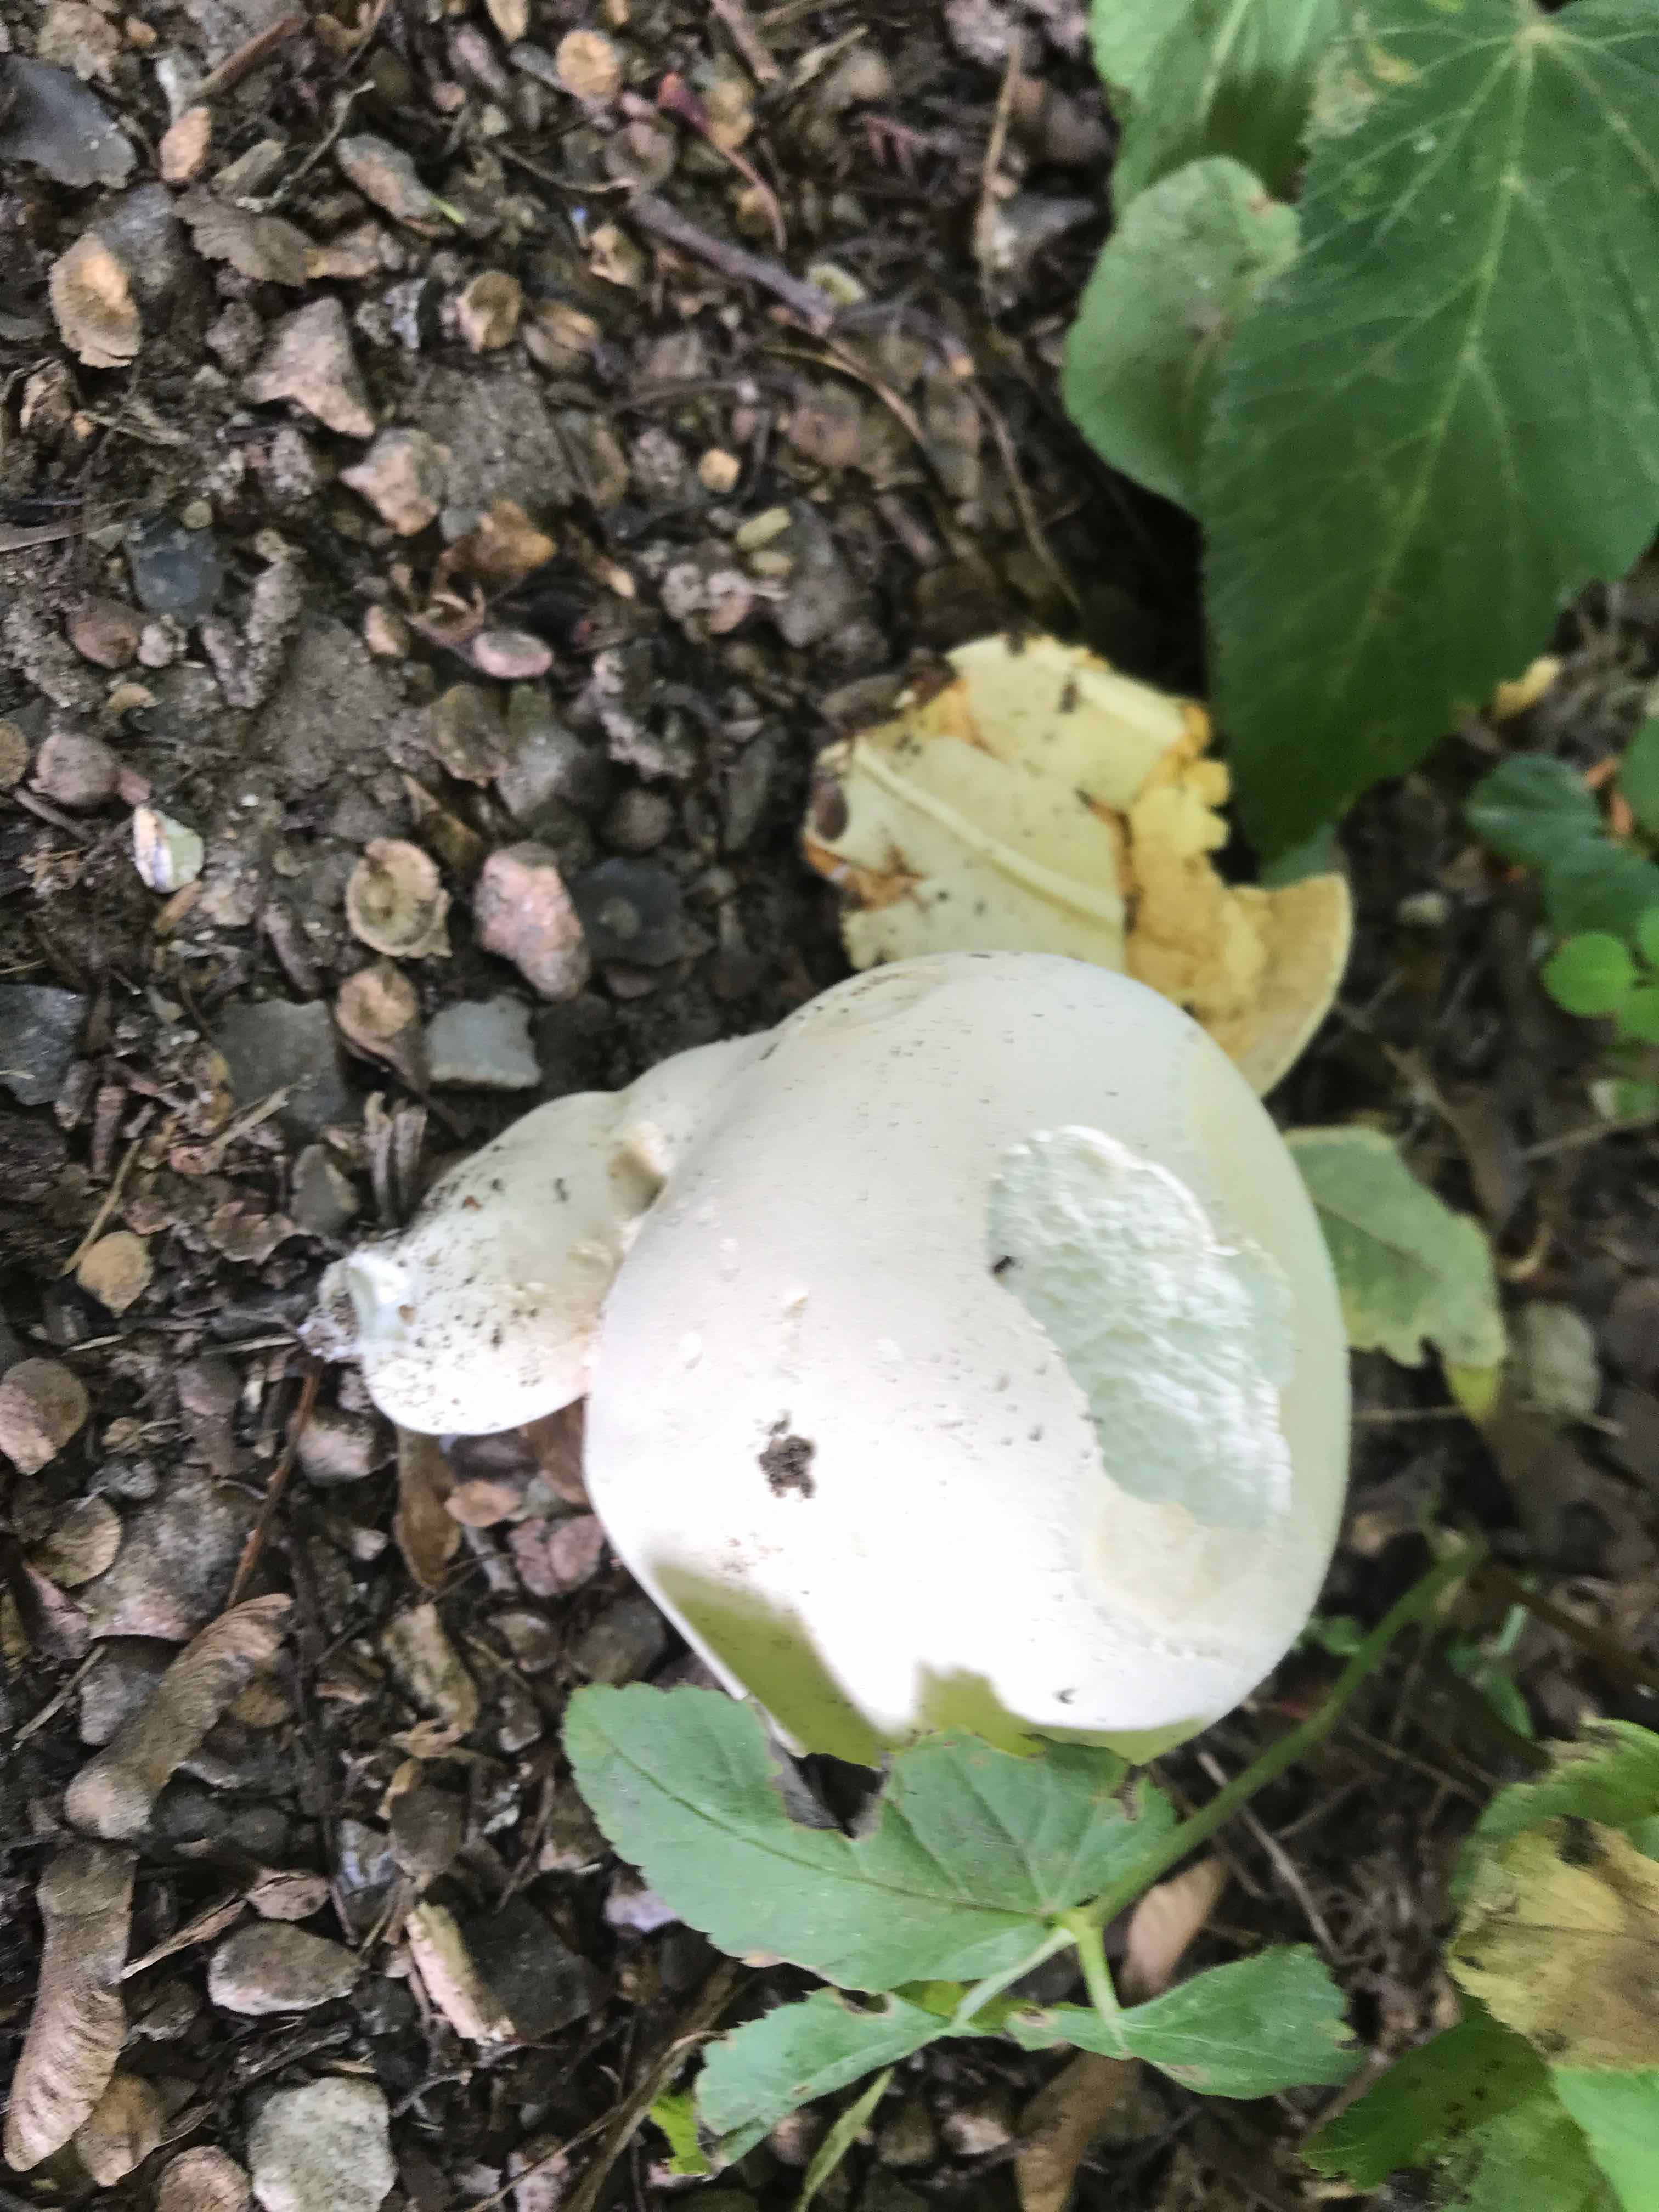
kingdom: Fungi
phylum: Basidiomycota
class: Agaricomycetes
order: Agaricales
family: Lycoperdaceae
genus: Calvatia
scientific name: Calvatia gigantea
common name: kæmpestøvbold
